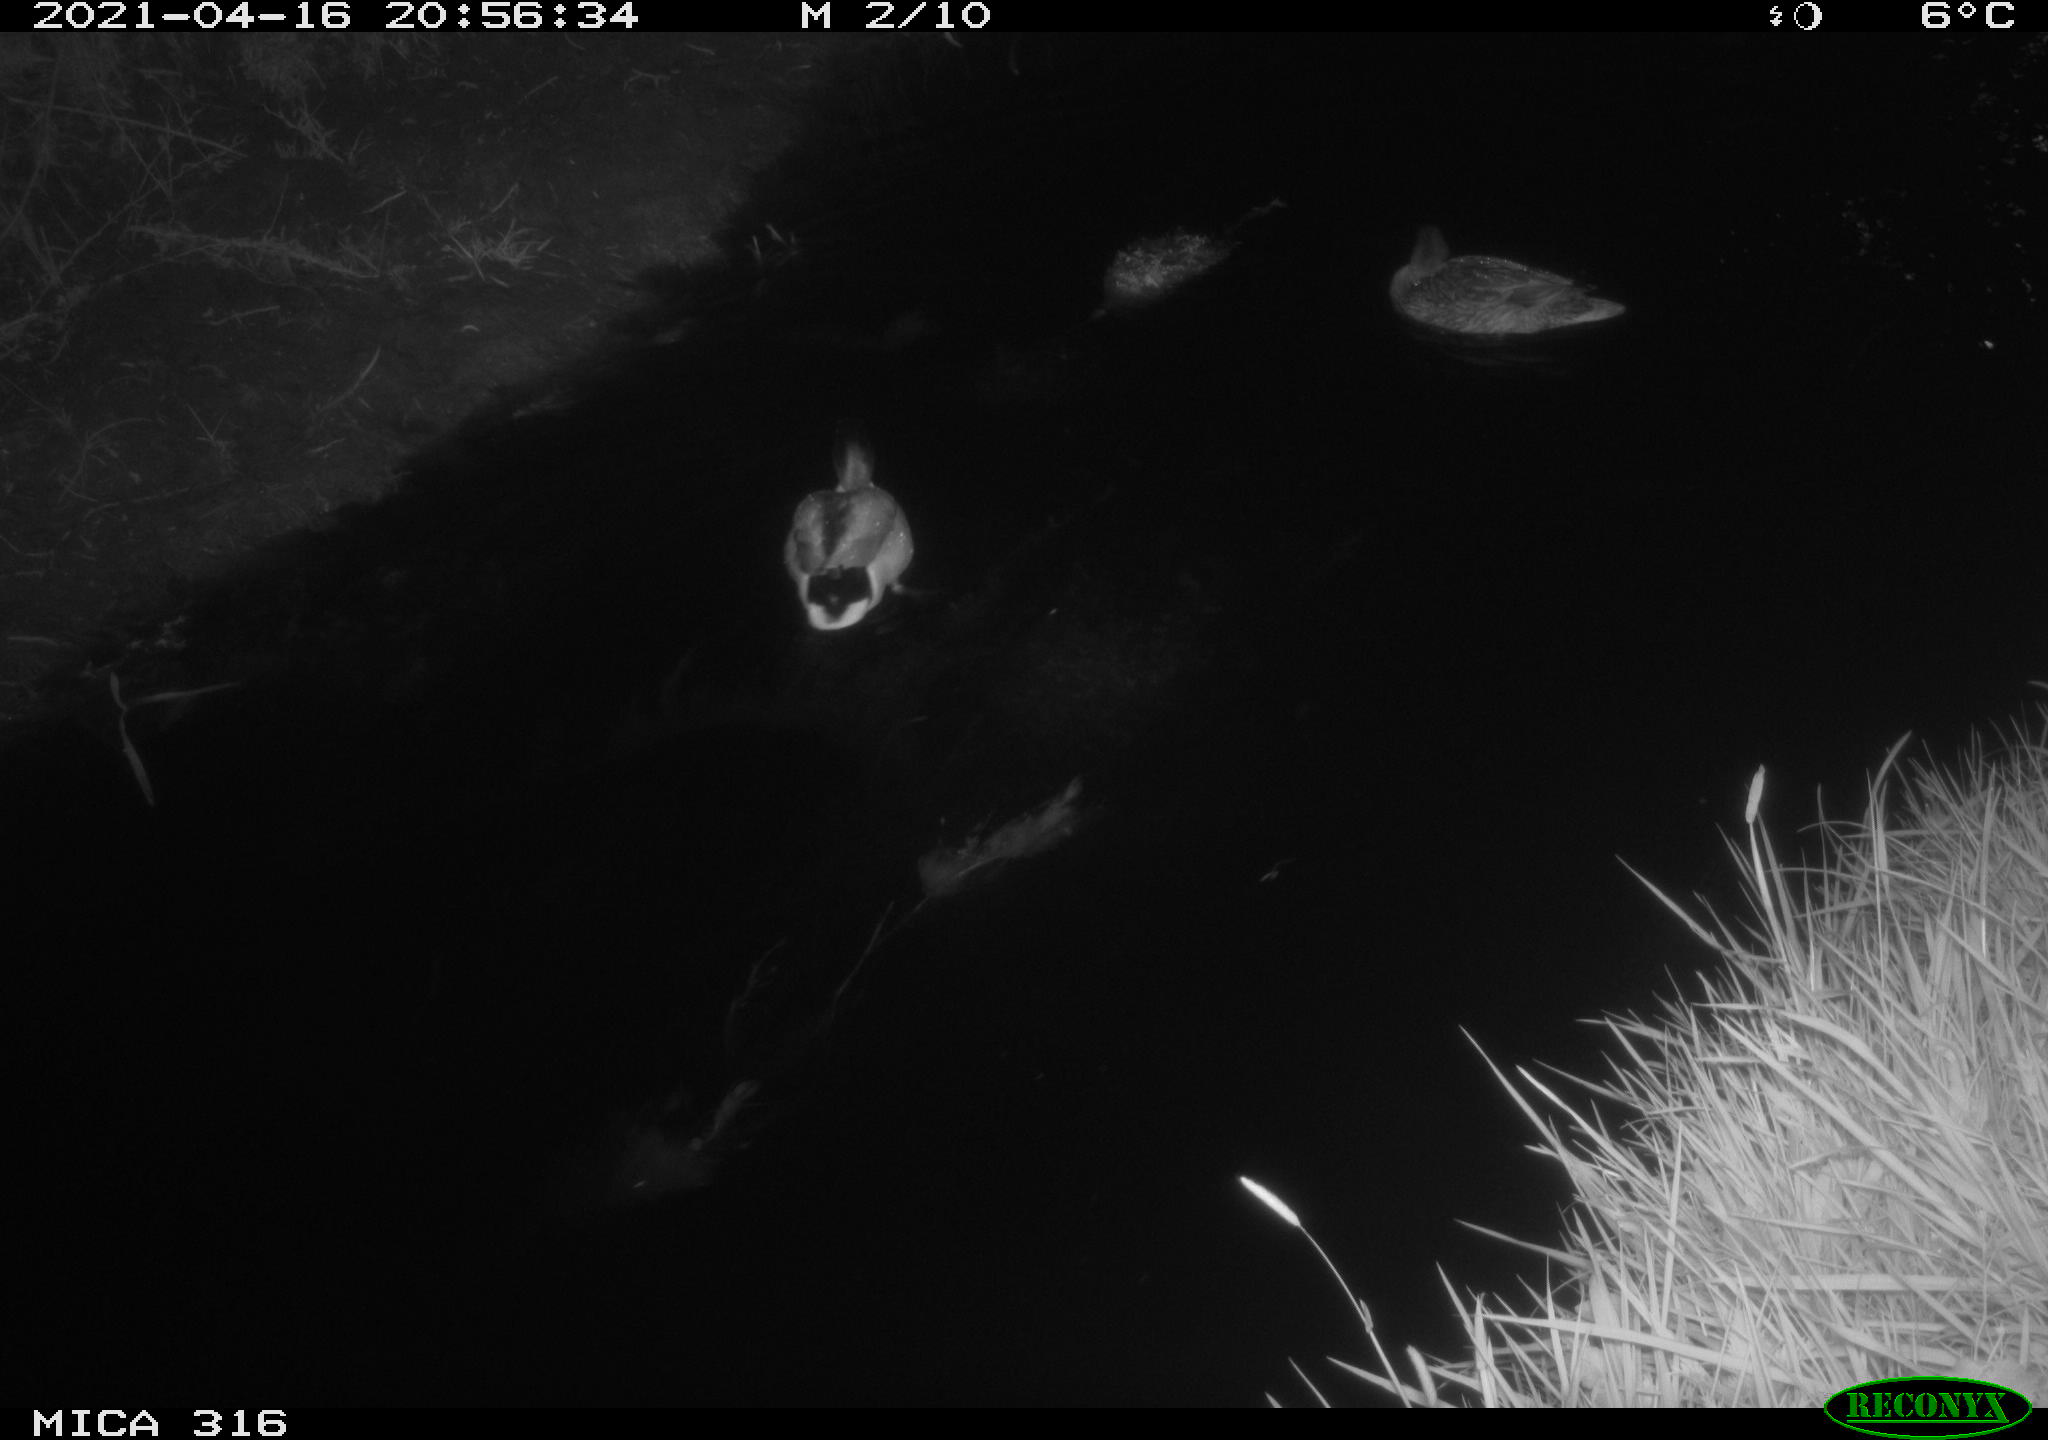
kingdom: Animalia
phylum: Chordata
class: Aves
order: Anseriformes
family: Anatidae
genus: Anas
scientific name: Anas platyrhynchos
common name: Mallard
